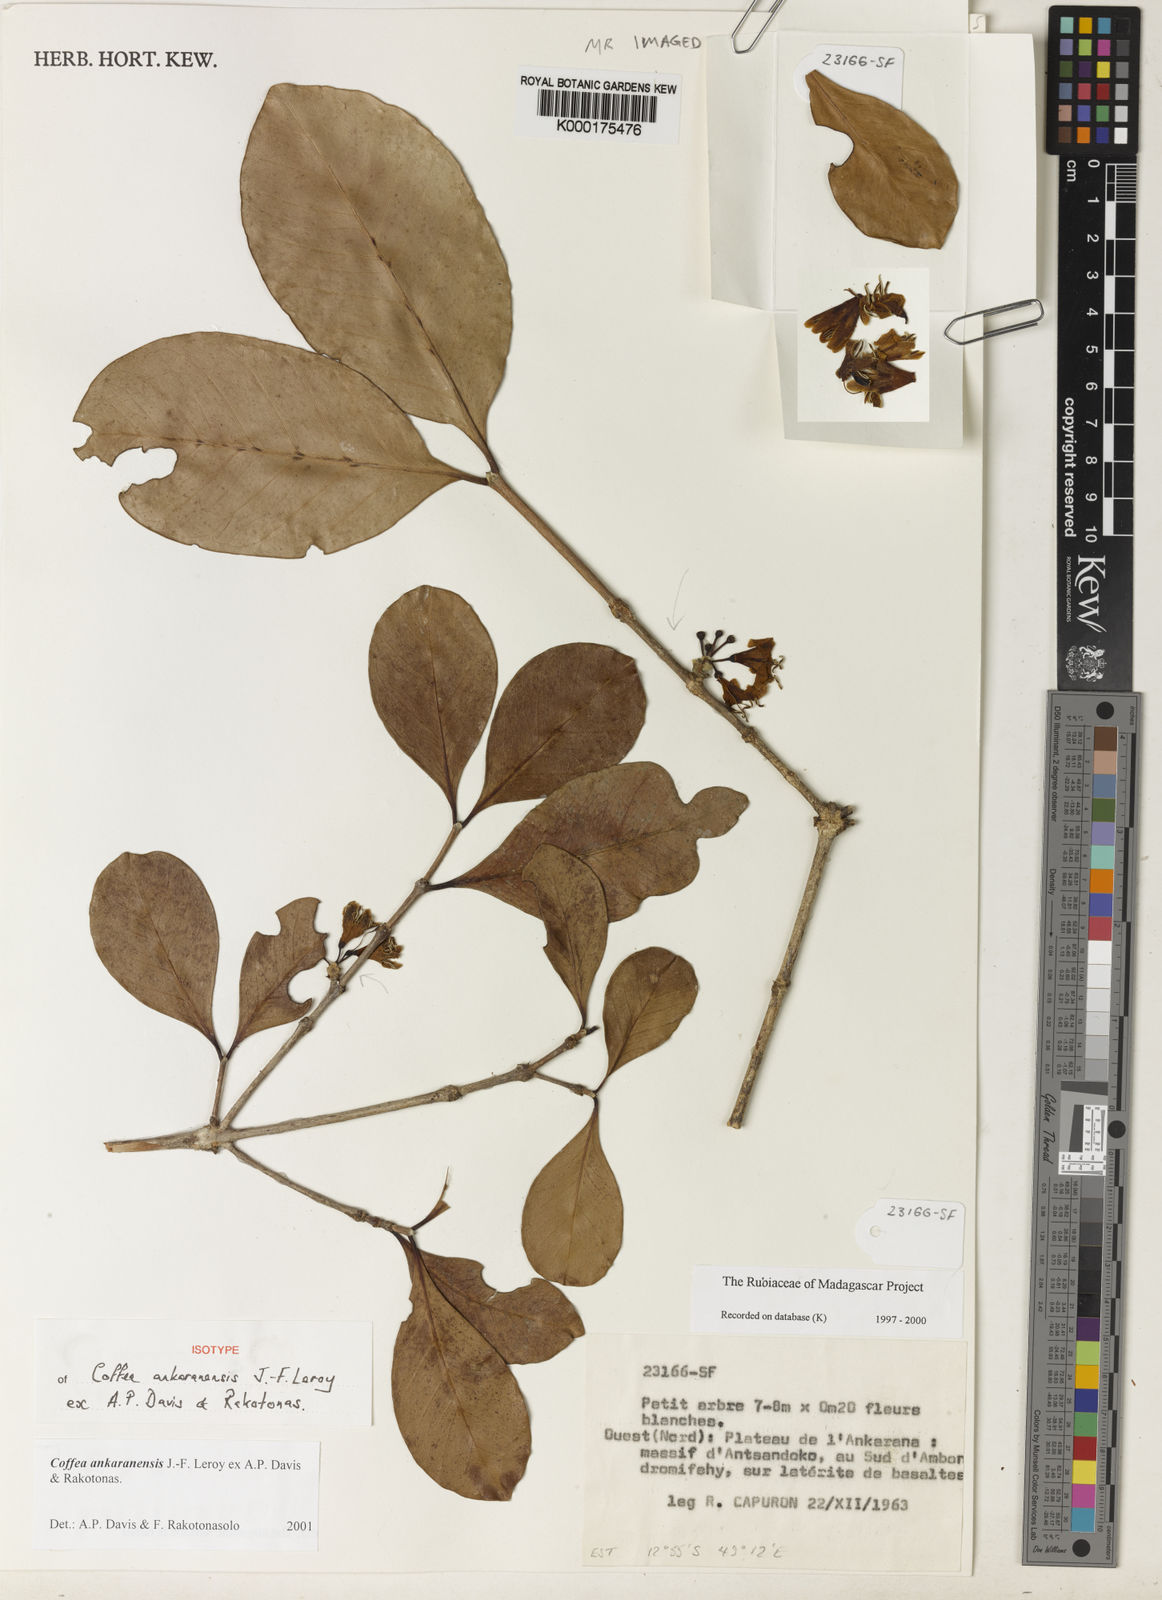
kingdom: Plantae
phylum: Tracheophyta
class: Magnoliopsida
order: Gentianales
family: Rubiaceae
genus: Coffea
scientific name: Coffea ankaranensis
